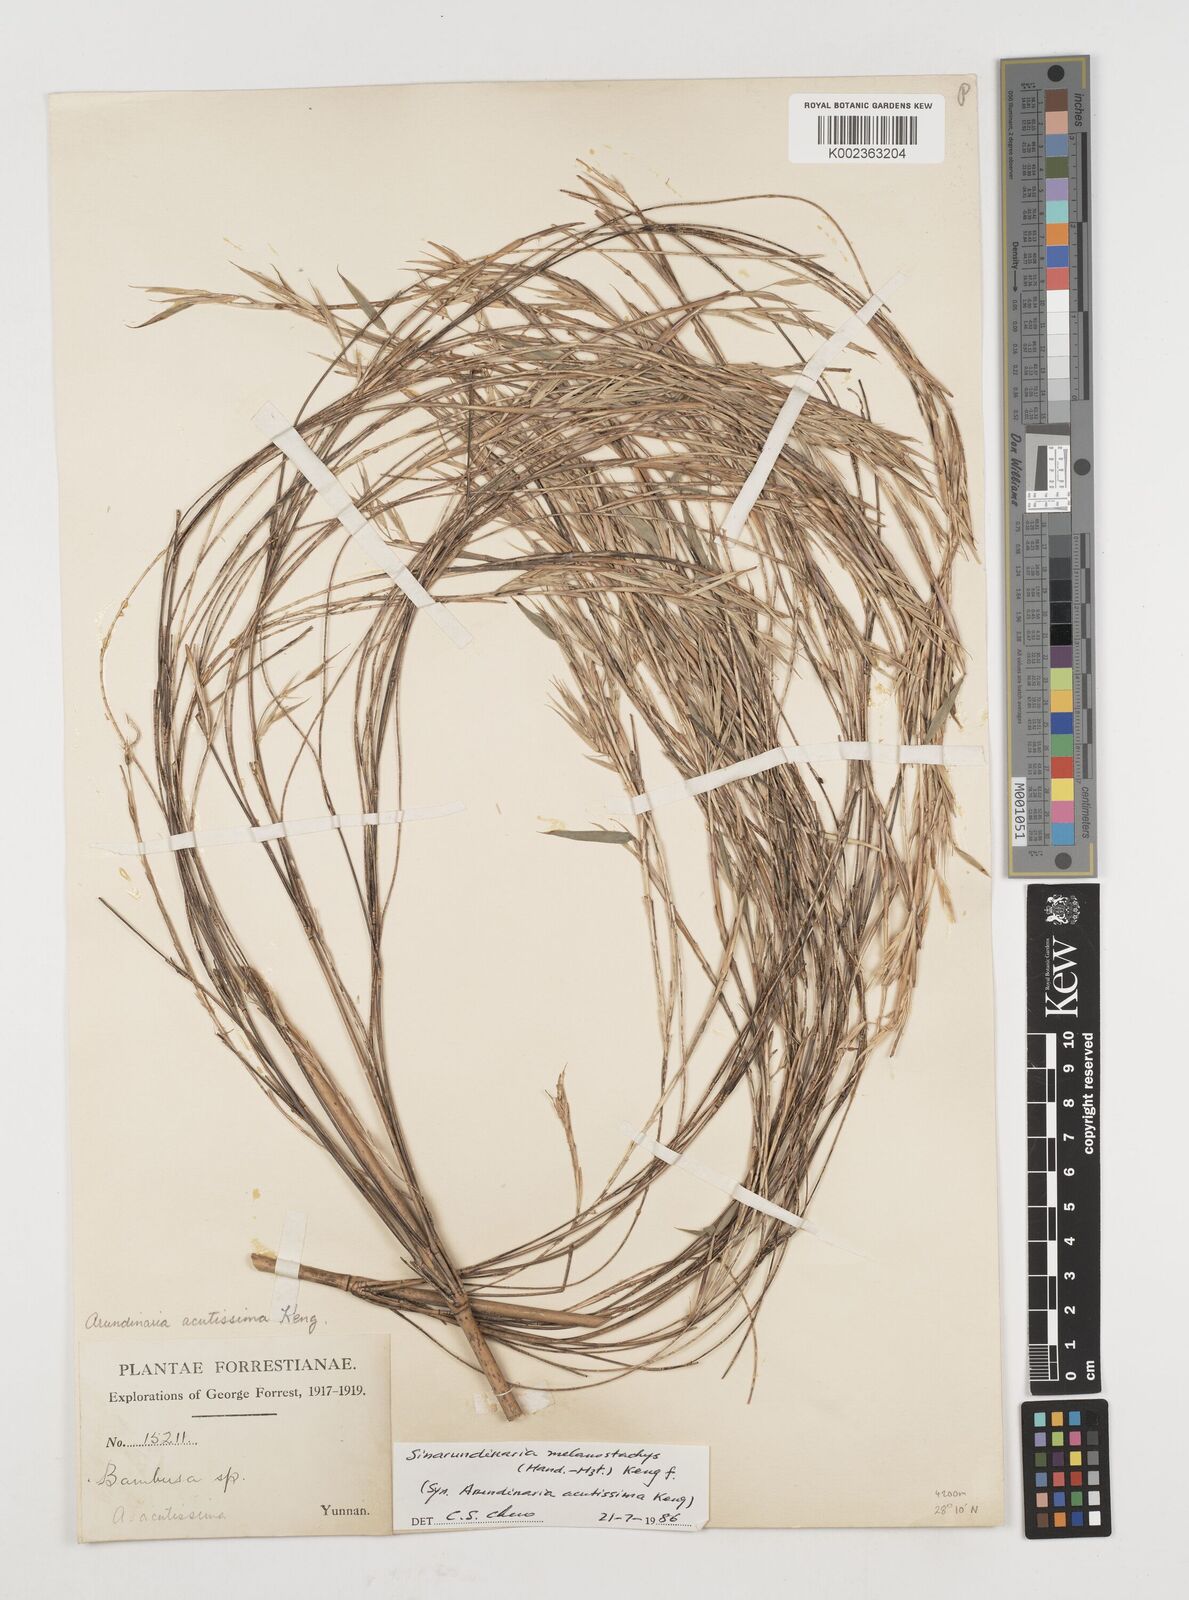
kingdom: Plantae
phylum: Tracheophyta
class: Liliopsida
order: Poales
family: Poaceae
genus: Fargesia
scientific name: Fargesia melanostachys
